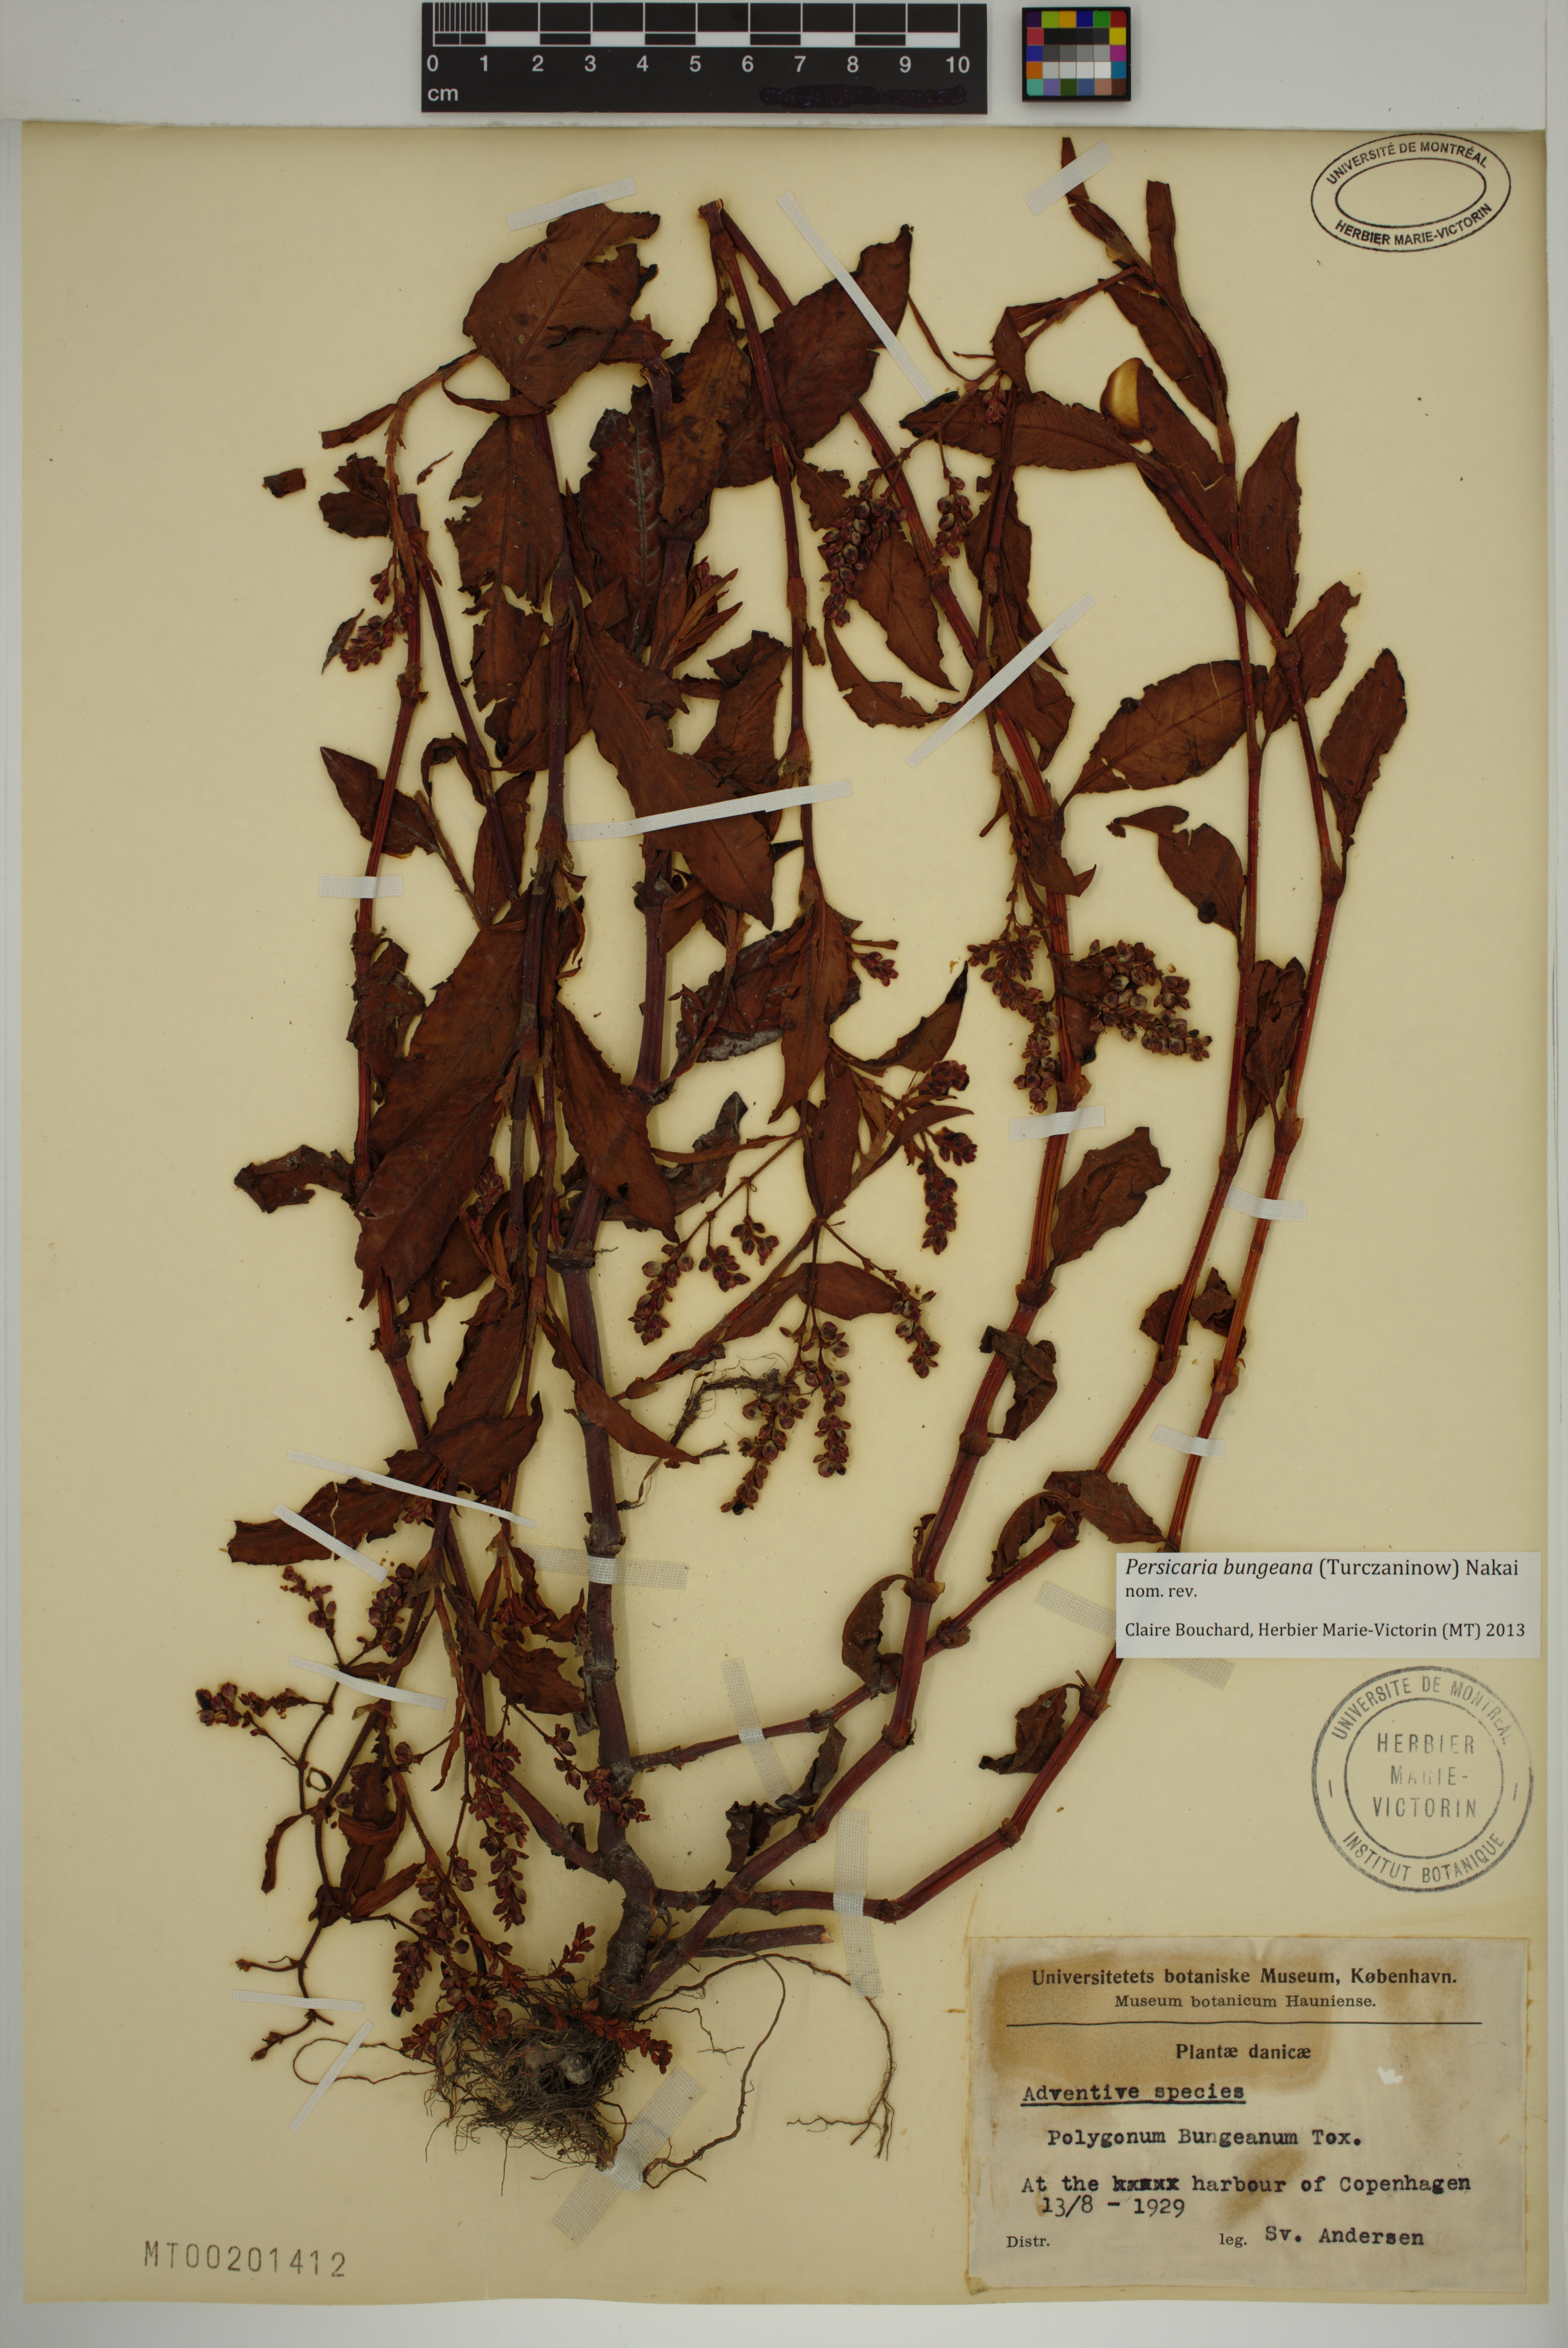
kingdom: Plantae
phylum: Tracheophyta
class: Magnoliopsida
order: Caryophyllales
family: Polygonaceae
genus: Persicaria
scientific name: Persicaria bungeana
